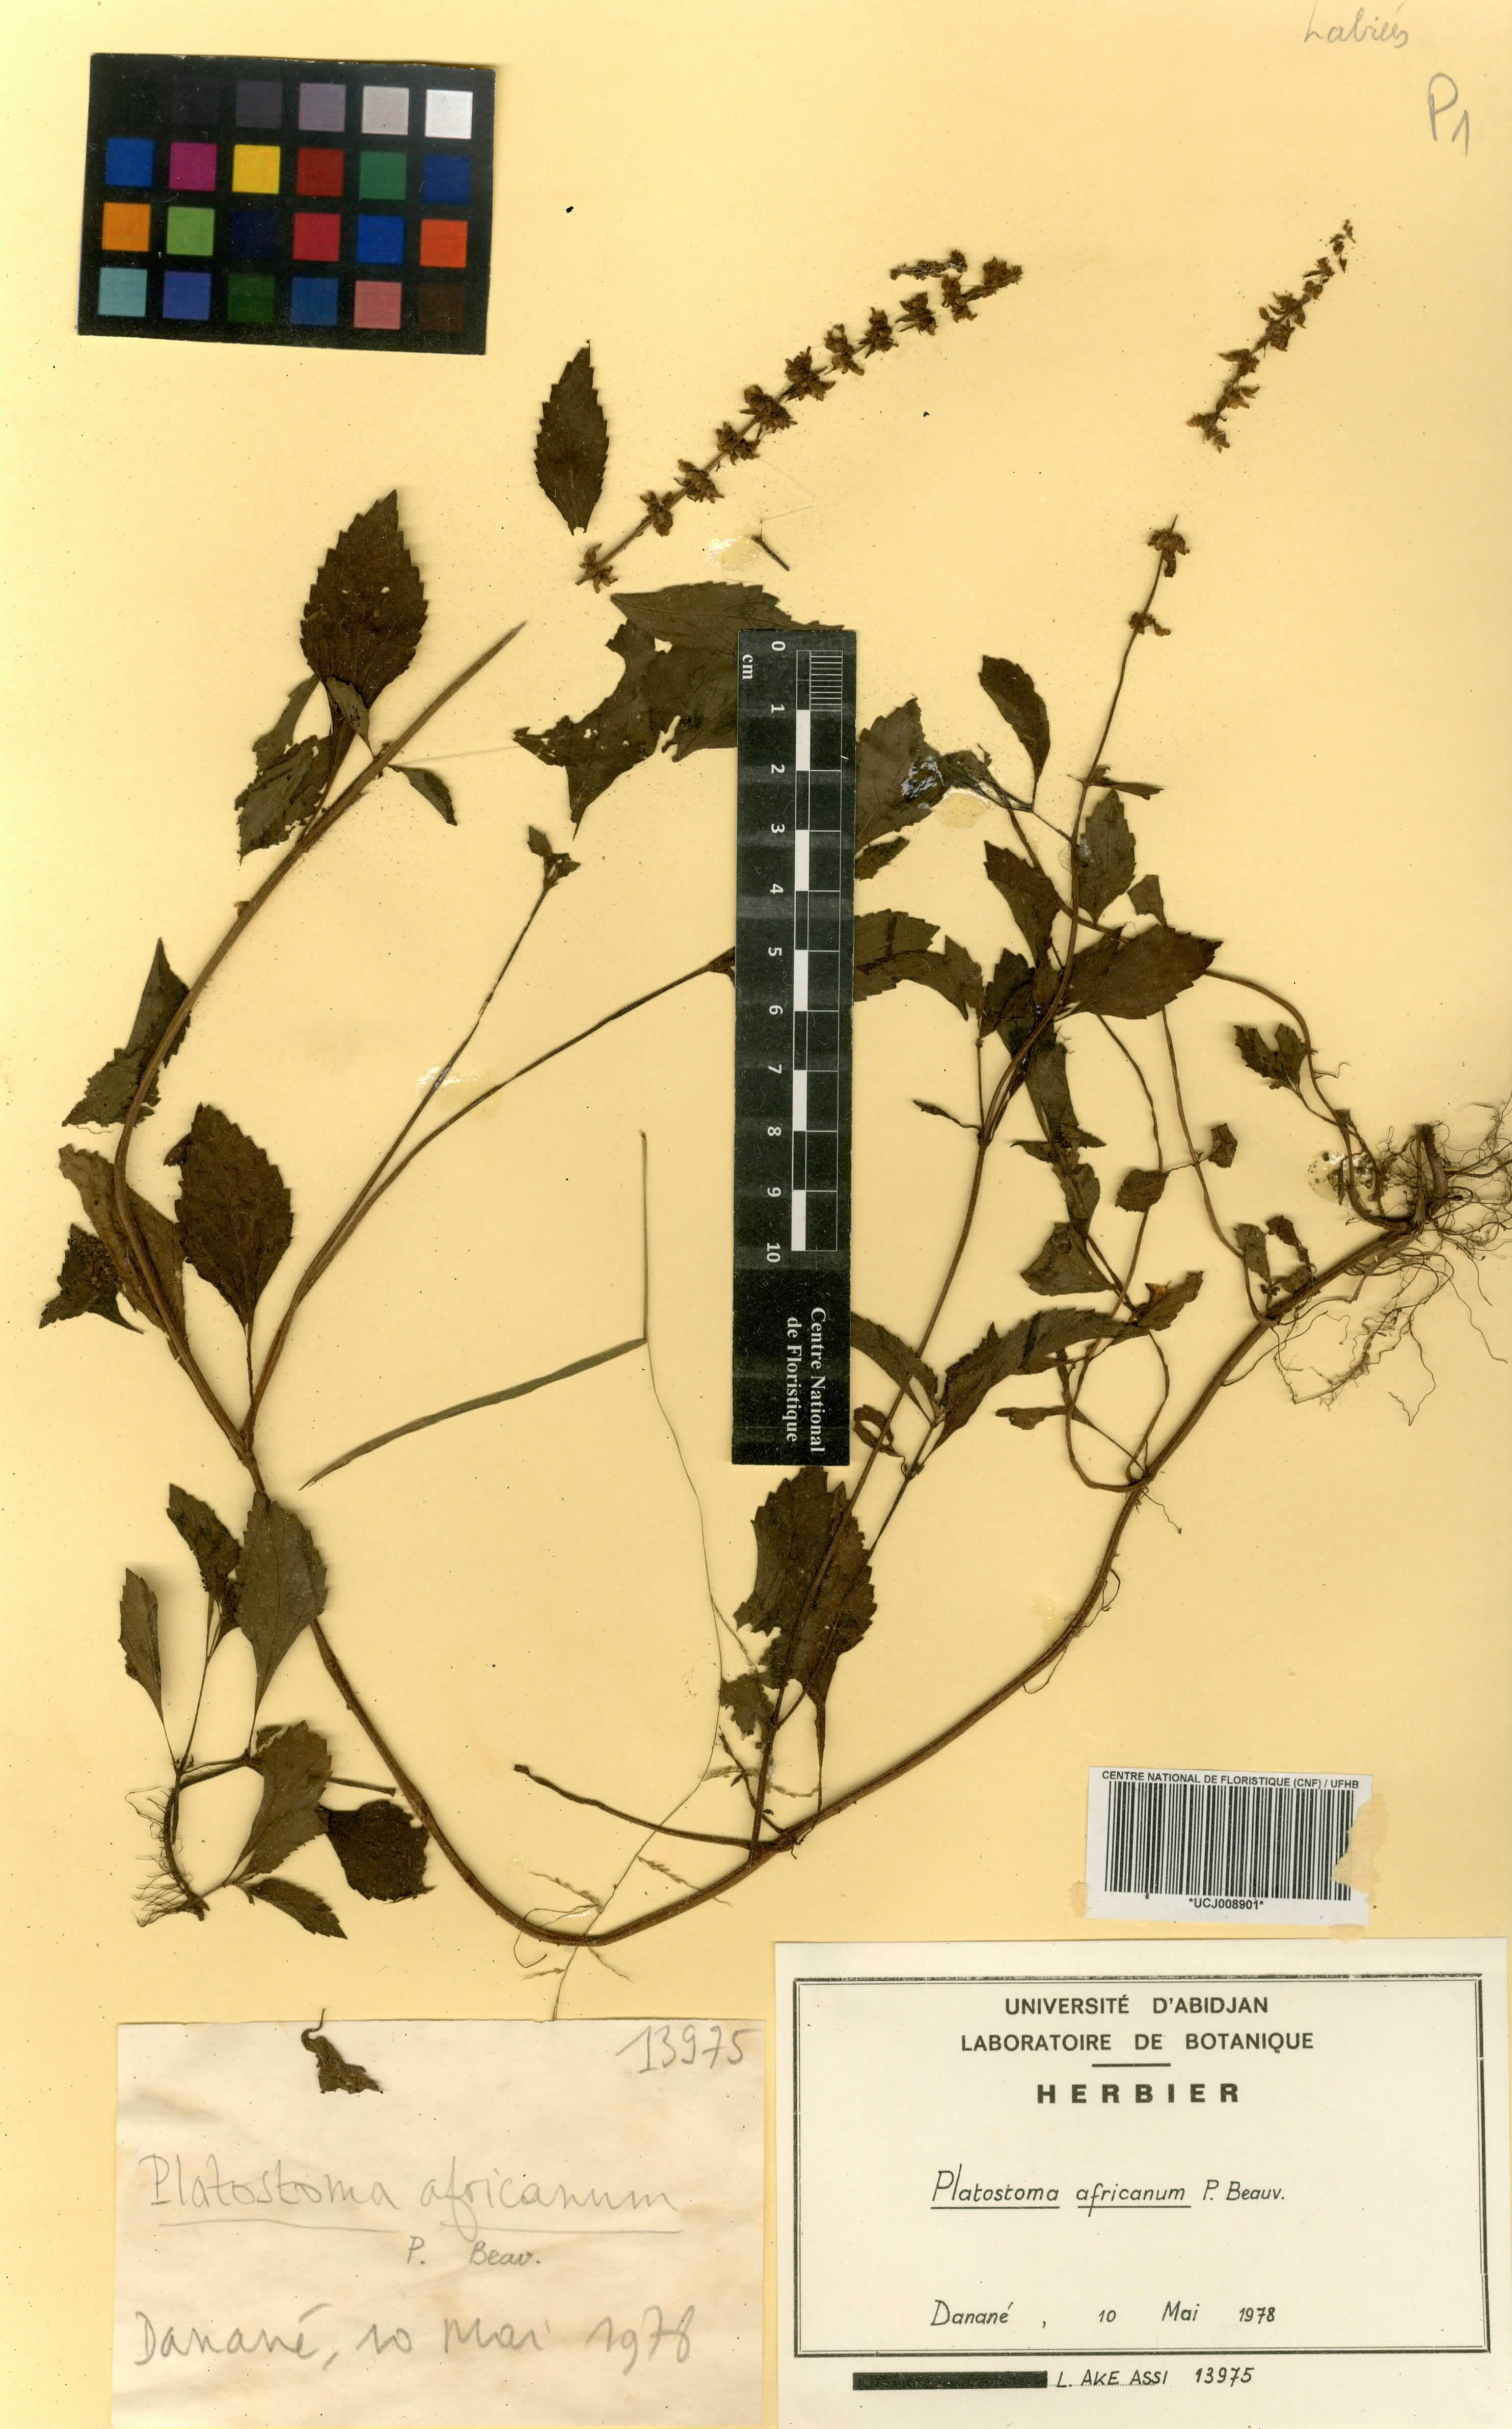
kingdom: Plantae
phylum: Tracheophyta
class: Magnoliopsida
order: Lamiales
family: Lamiaceae
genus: Platostoma
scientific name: Platostoma africanum
